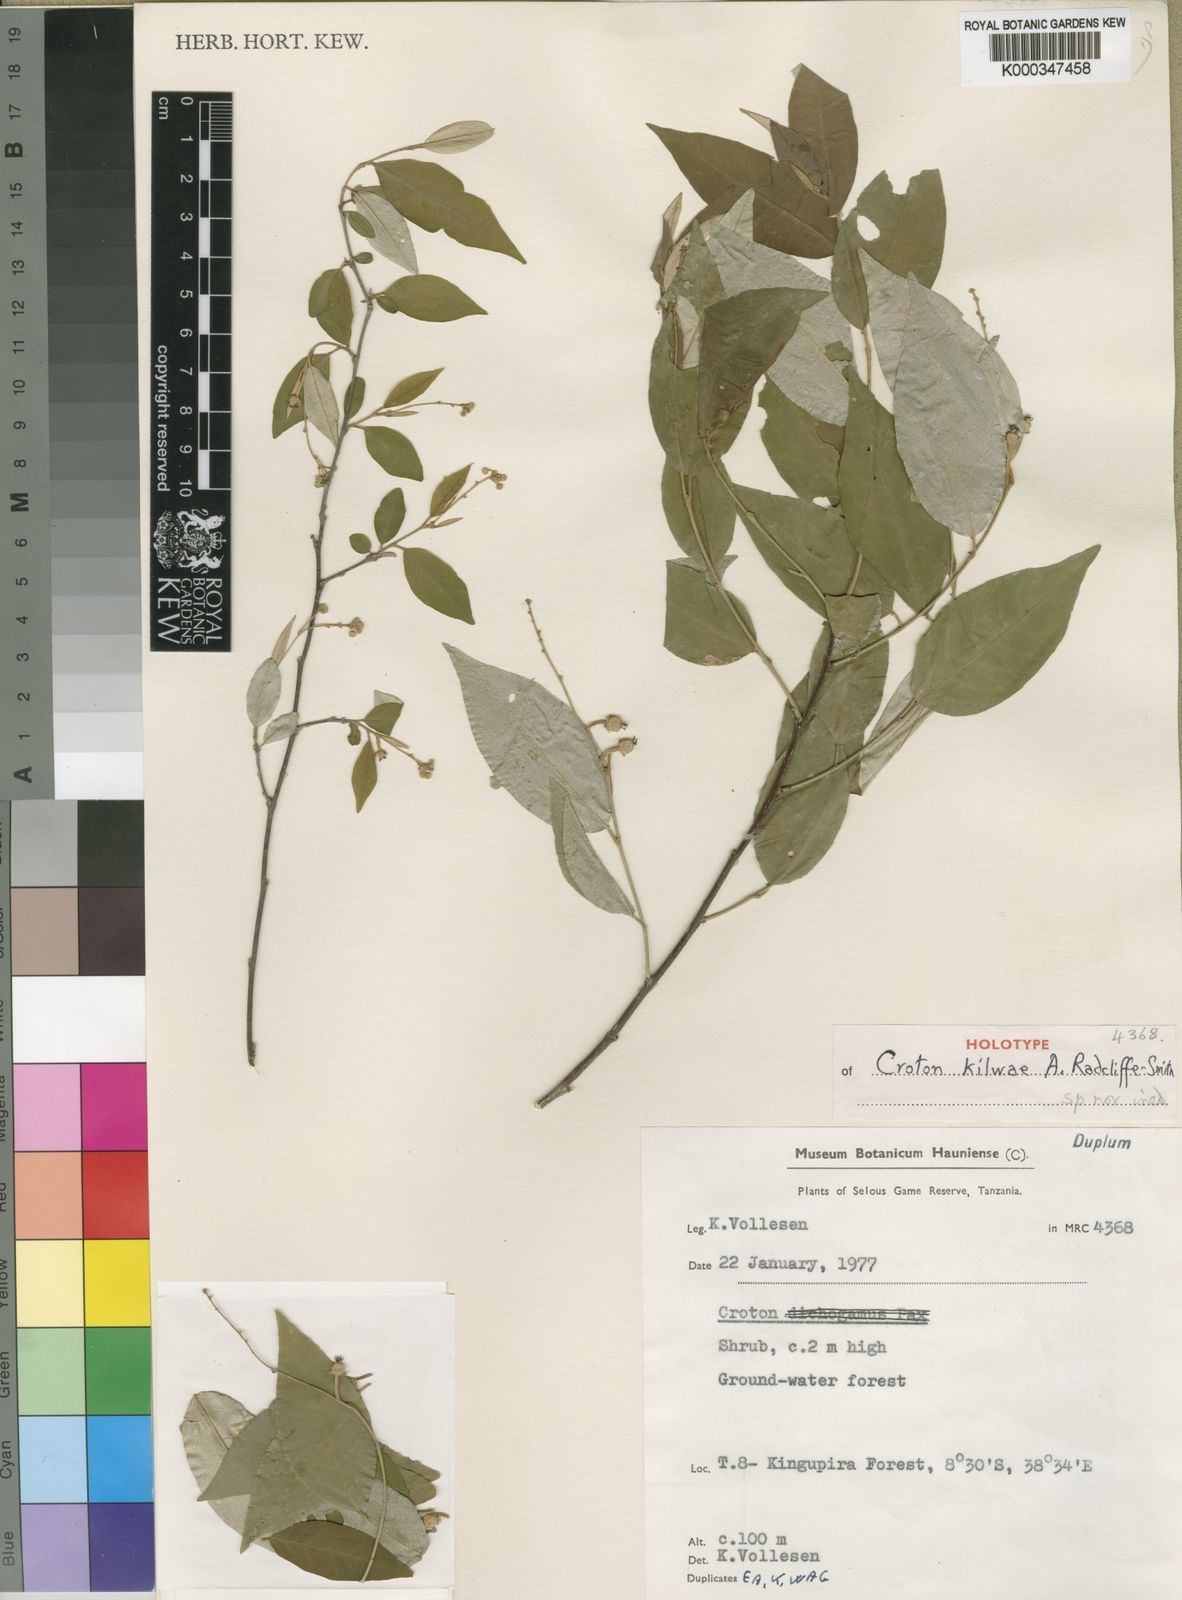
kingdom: Plantae
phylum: Tracheophyta
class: Magnoliopsida
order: Malpighiales
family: Euphorbiaceae
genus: Croton
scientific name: Croton kilwae
